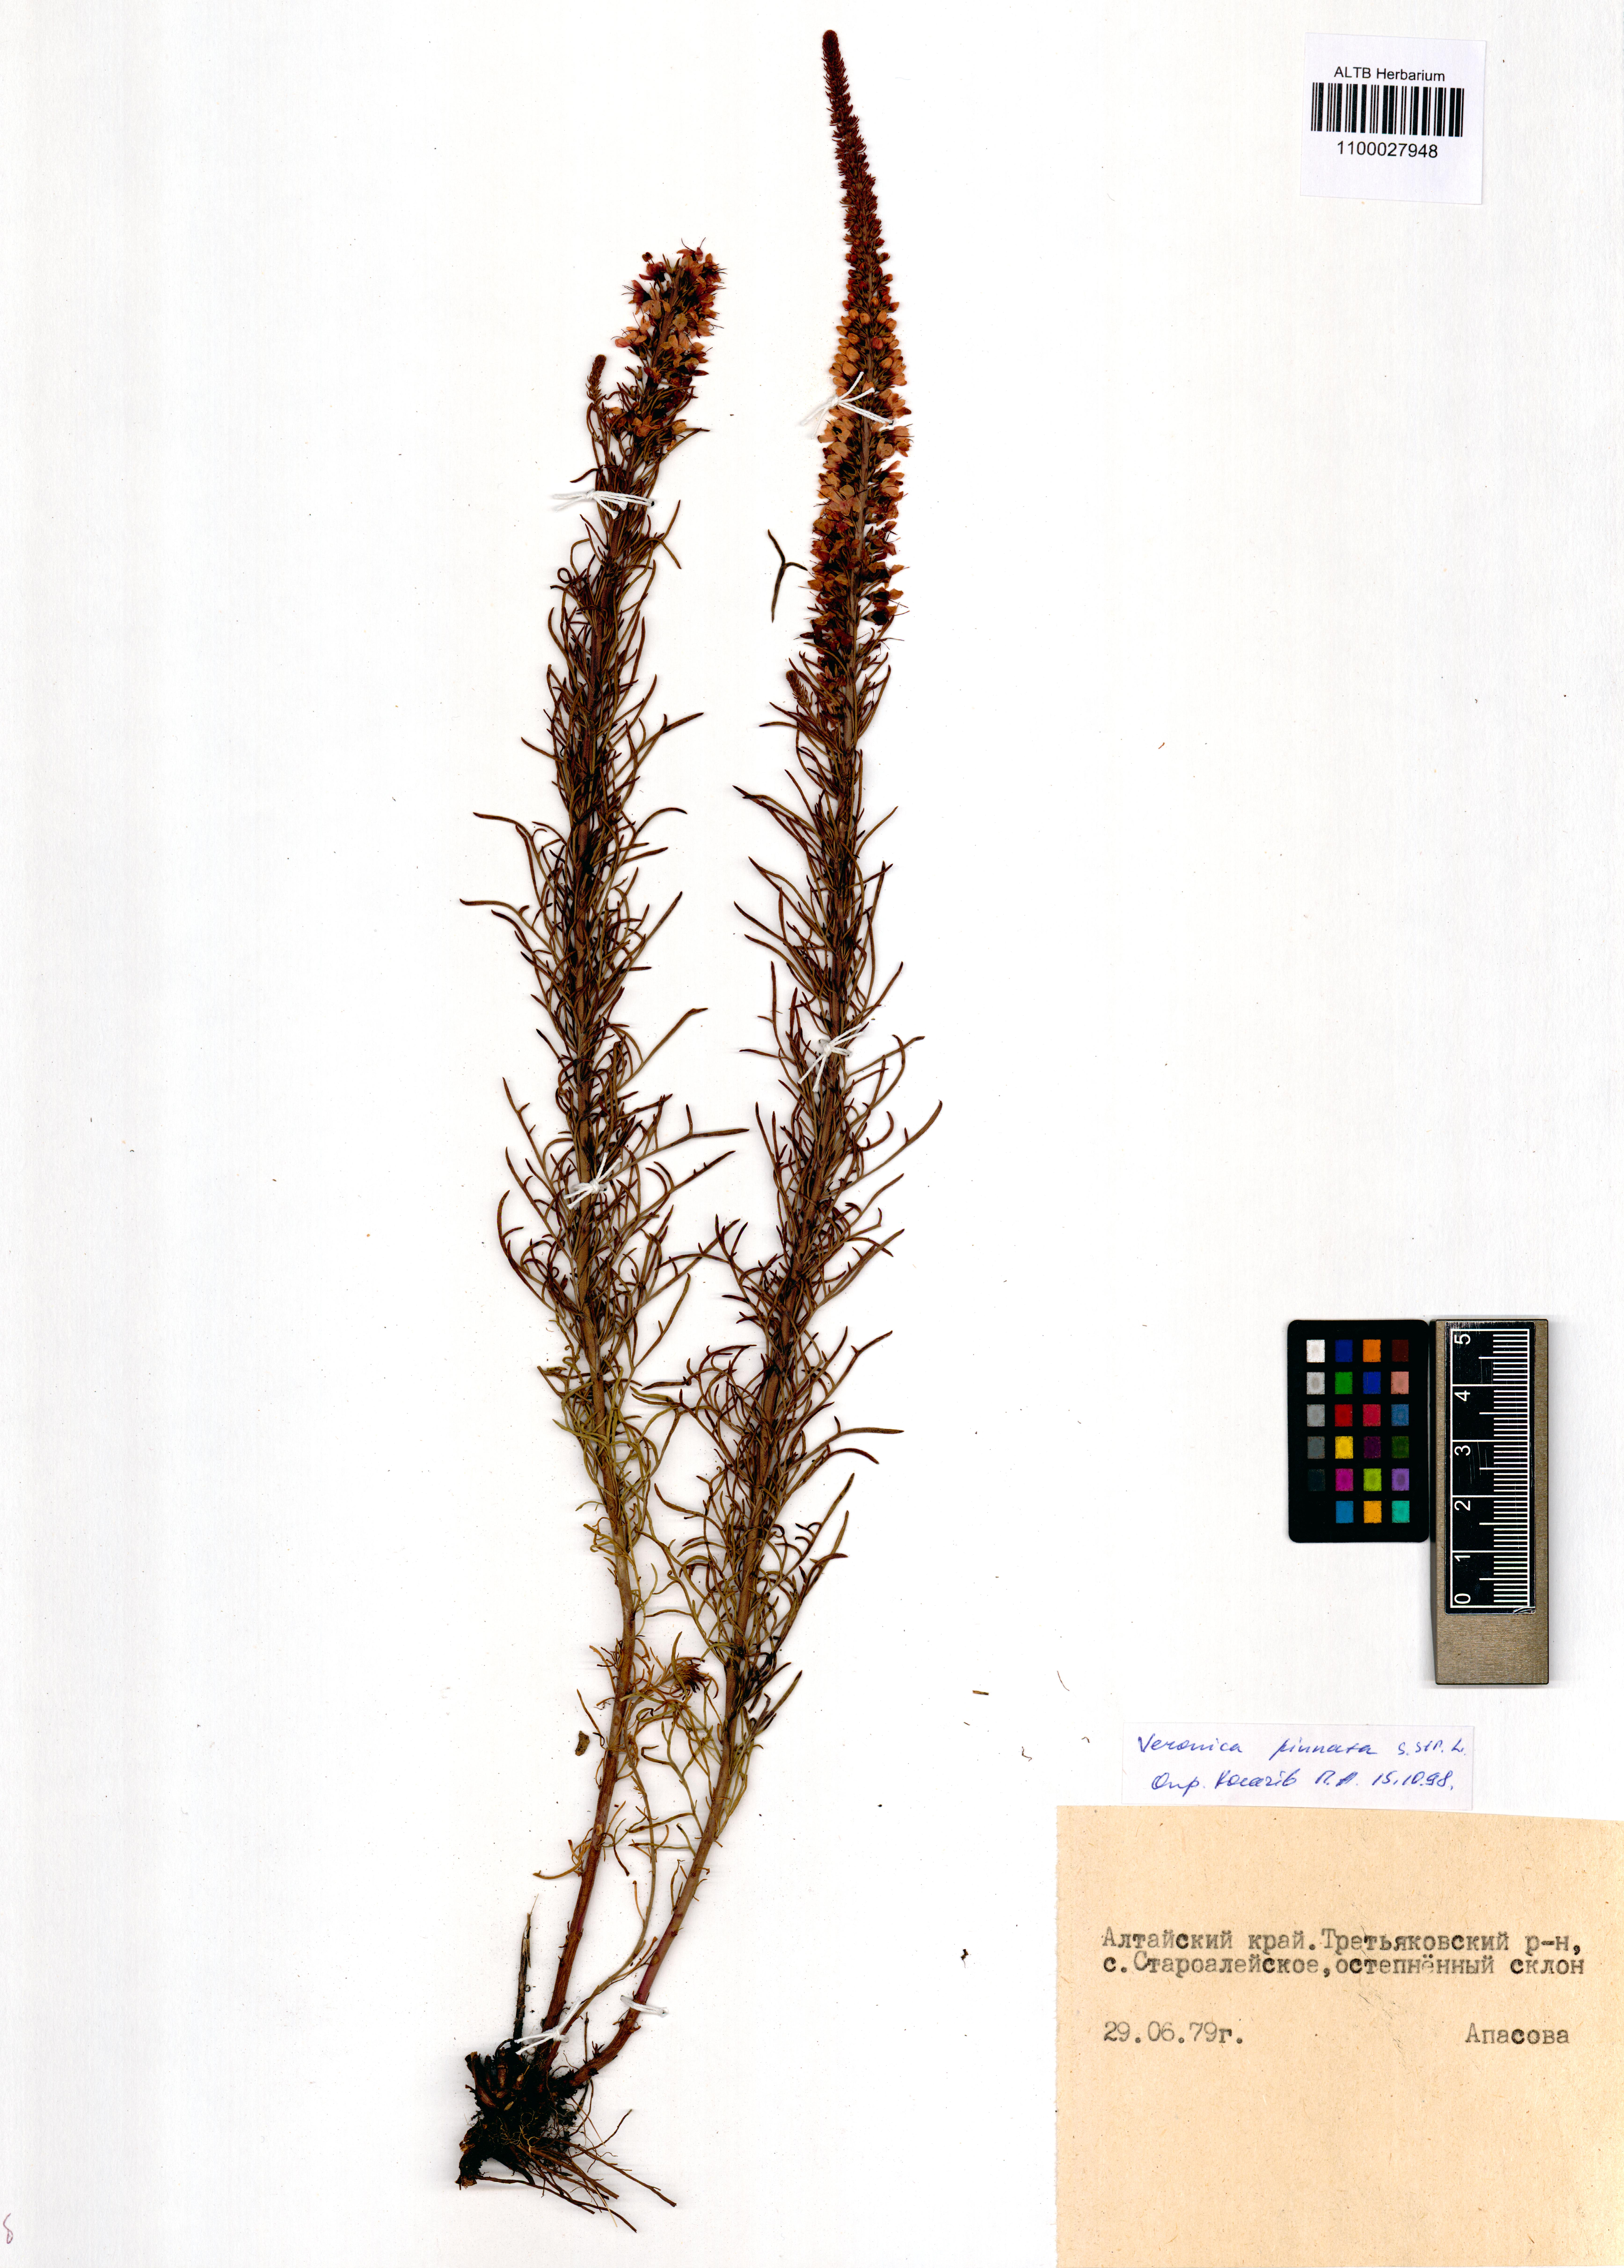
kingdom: Plantae
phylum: Tracheophyta
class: Magnoliopsida
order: Lamiales
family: Plantaginaceae
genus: Veronica
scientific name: Veronica pinnata
